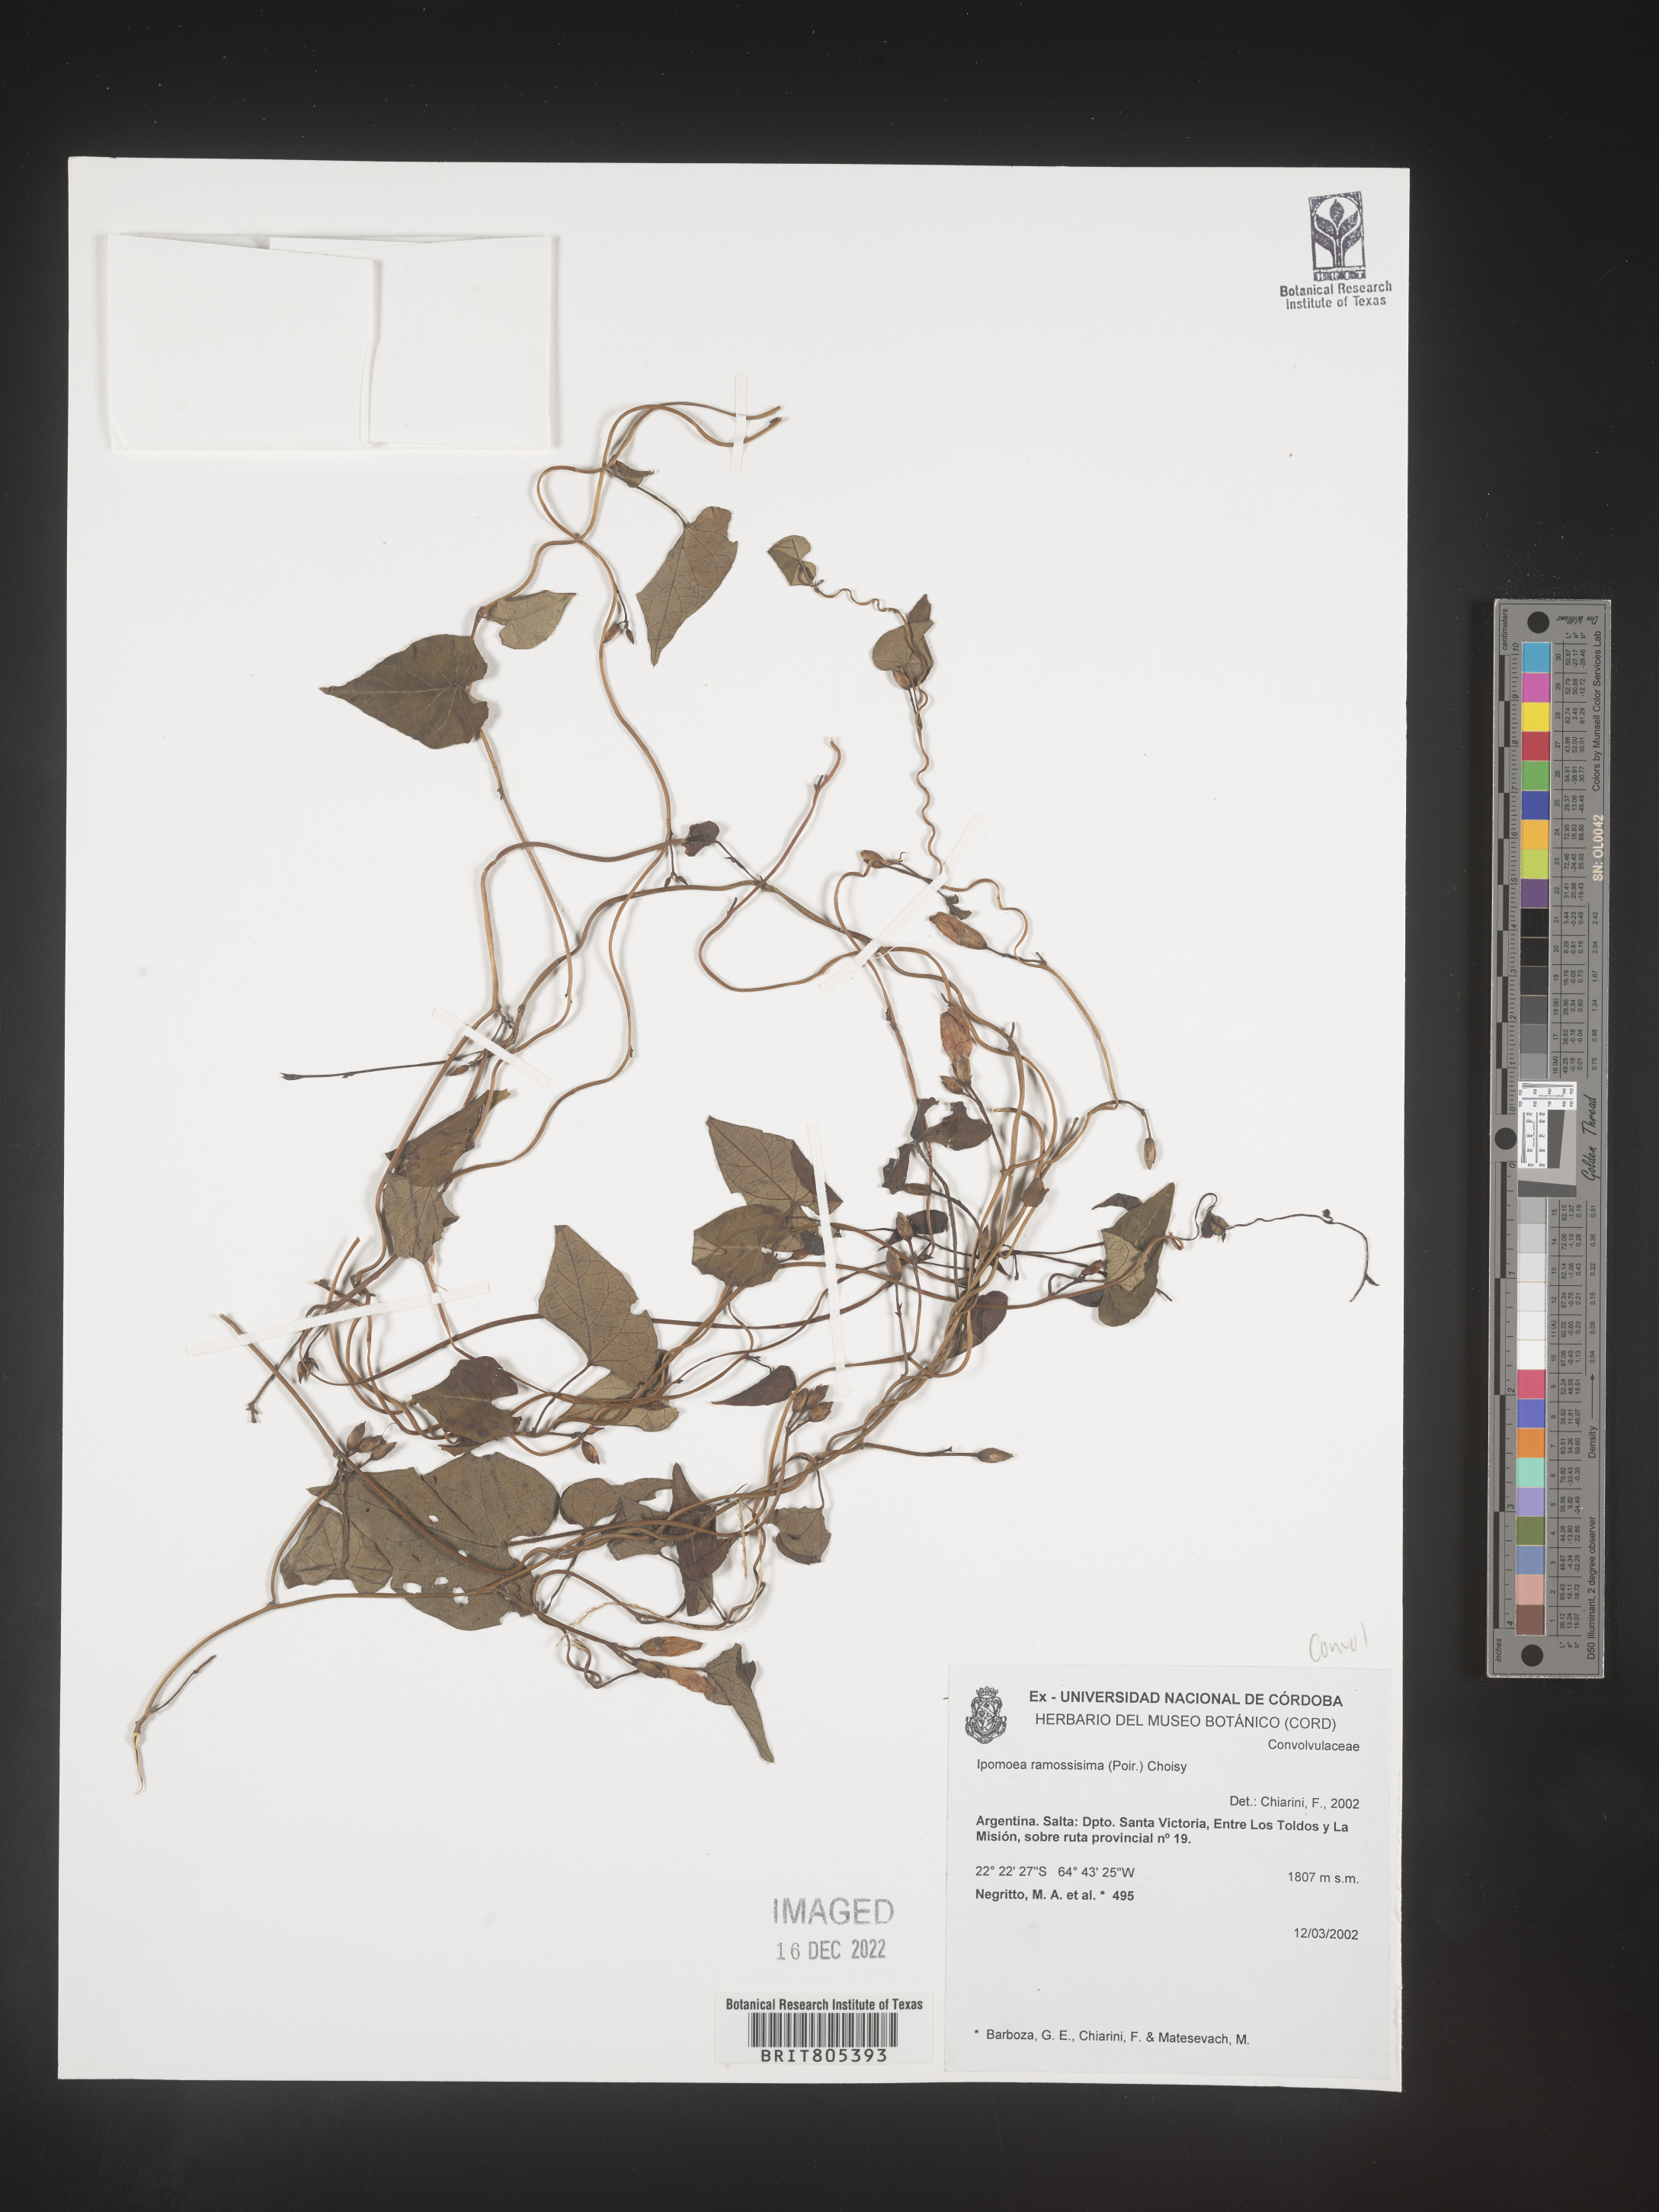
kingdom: Plantae
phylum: Tracheophyta
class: Magnoliopsida
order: Solanales
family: Convolvulaceae
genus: Ipomoea
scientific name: Ipomoea
